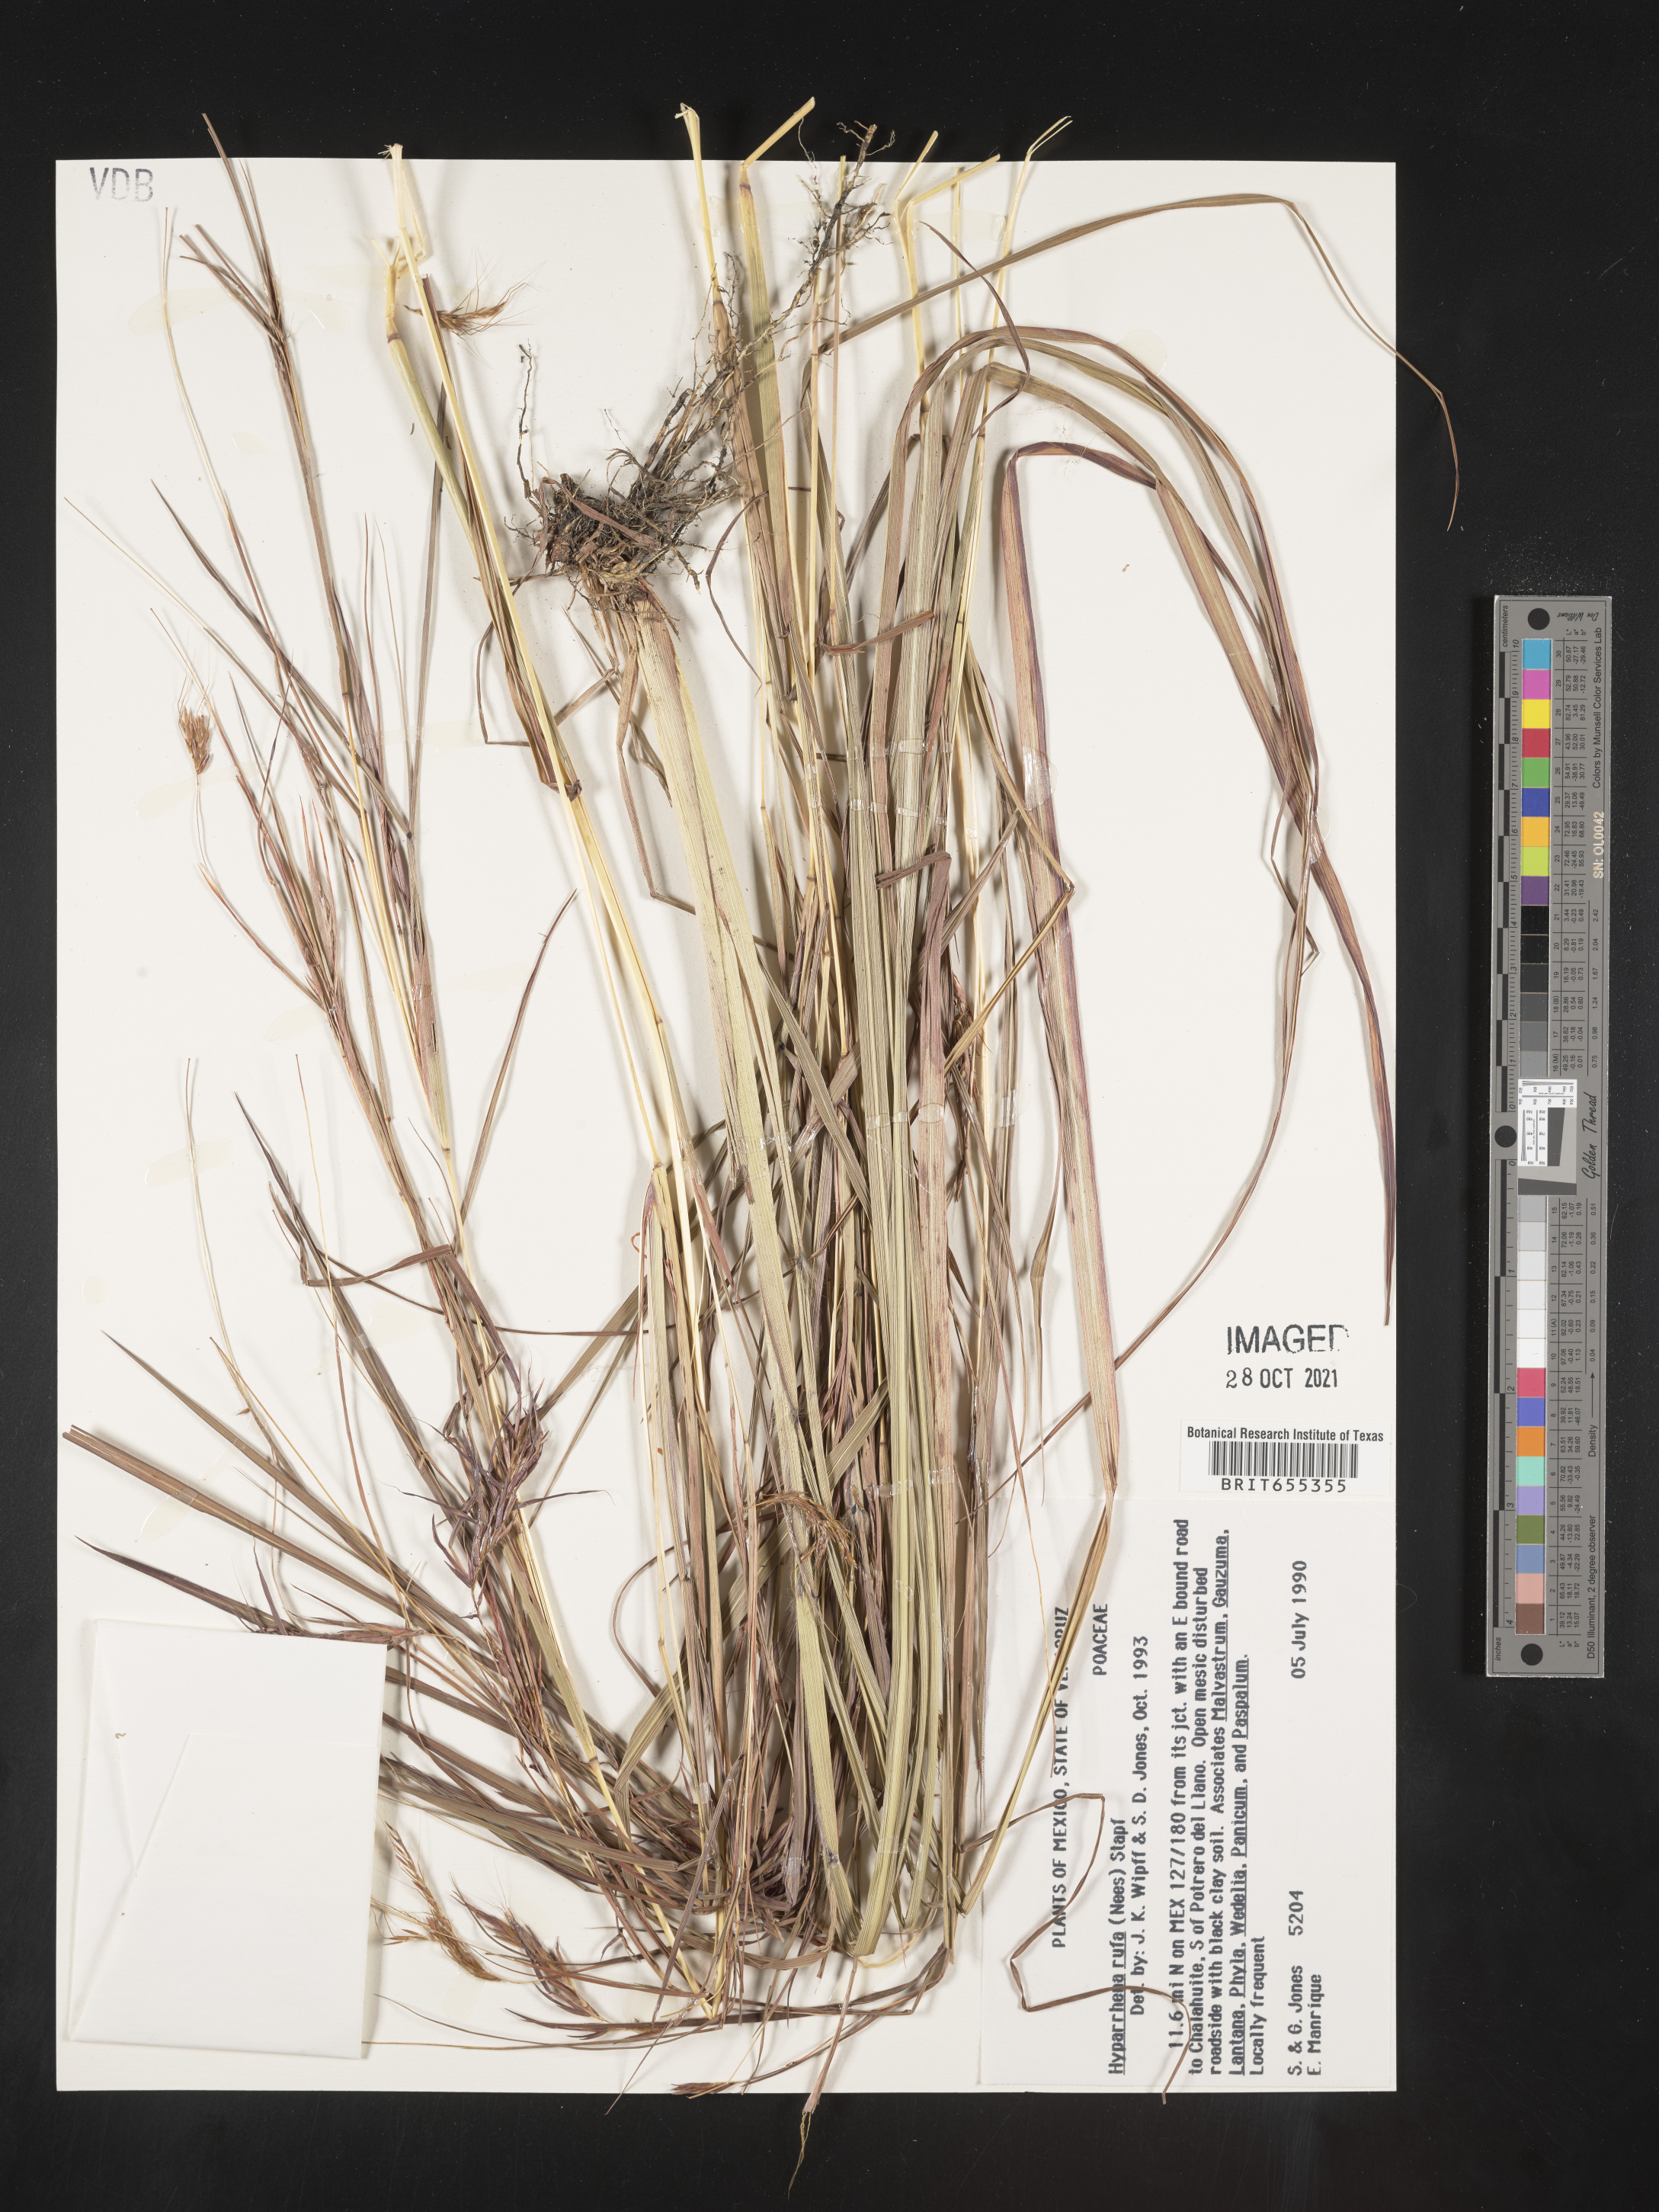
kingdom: Plantae
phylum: Tracheophyta
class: Liliopsida
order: Poales
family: Poaceae
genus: Hyparrhenia
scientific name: Hyparrhenia
